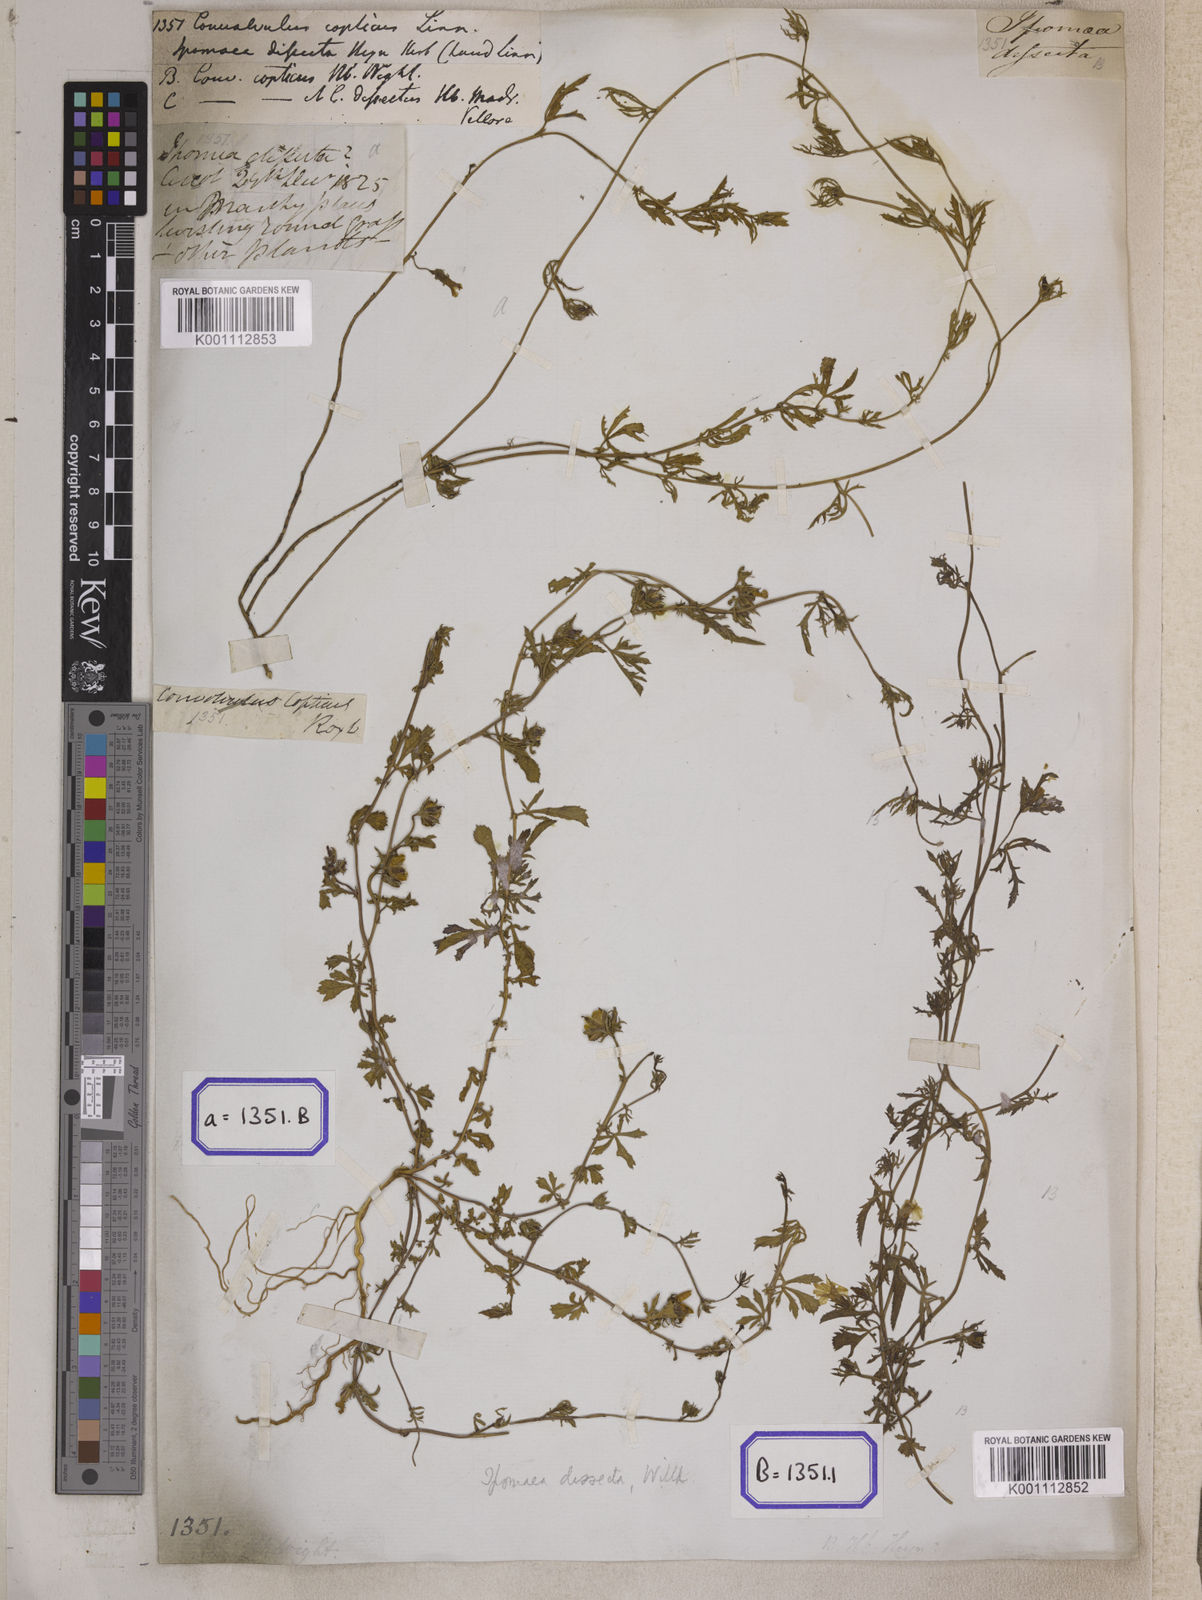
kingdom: Plantae
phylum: Tracheophyta
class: Magnoliopsida
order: Solanales
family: Convolvulaceae
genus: Ipomoea
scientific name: Ipomoea coptica
